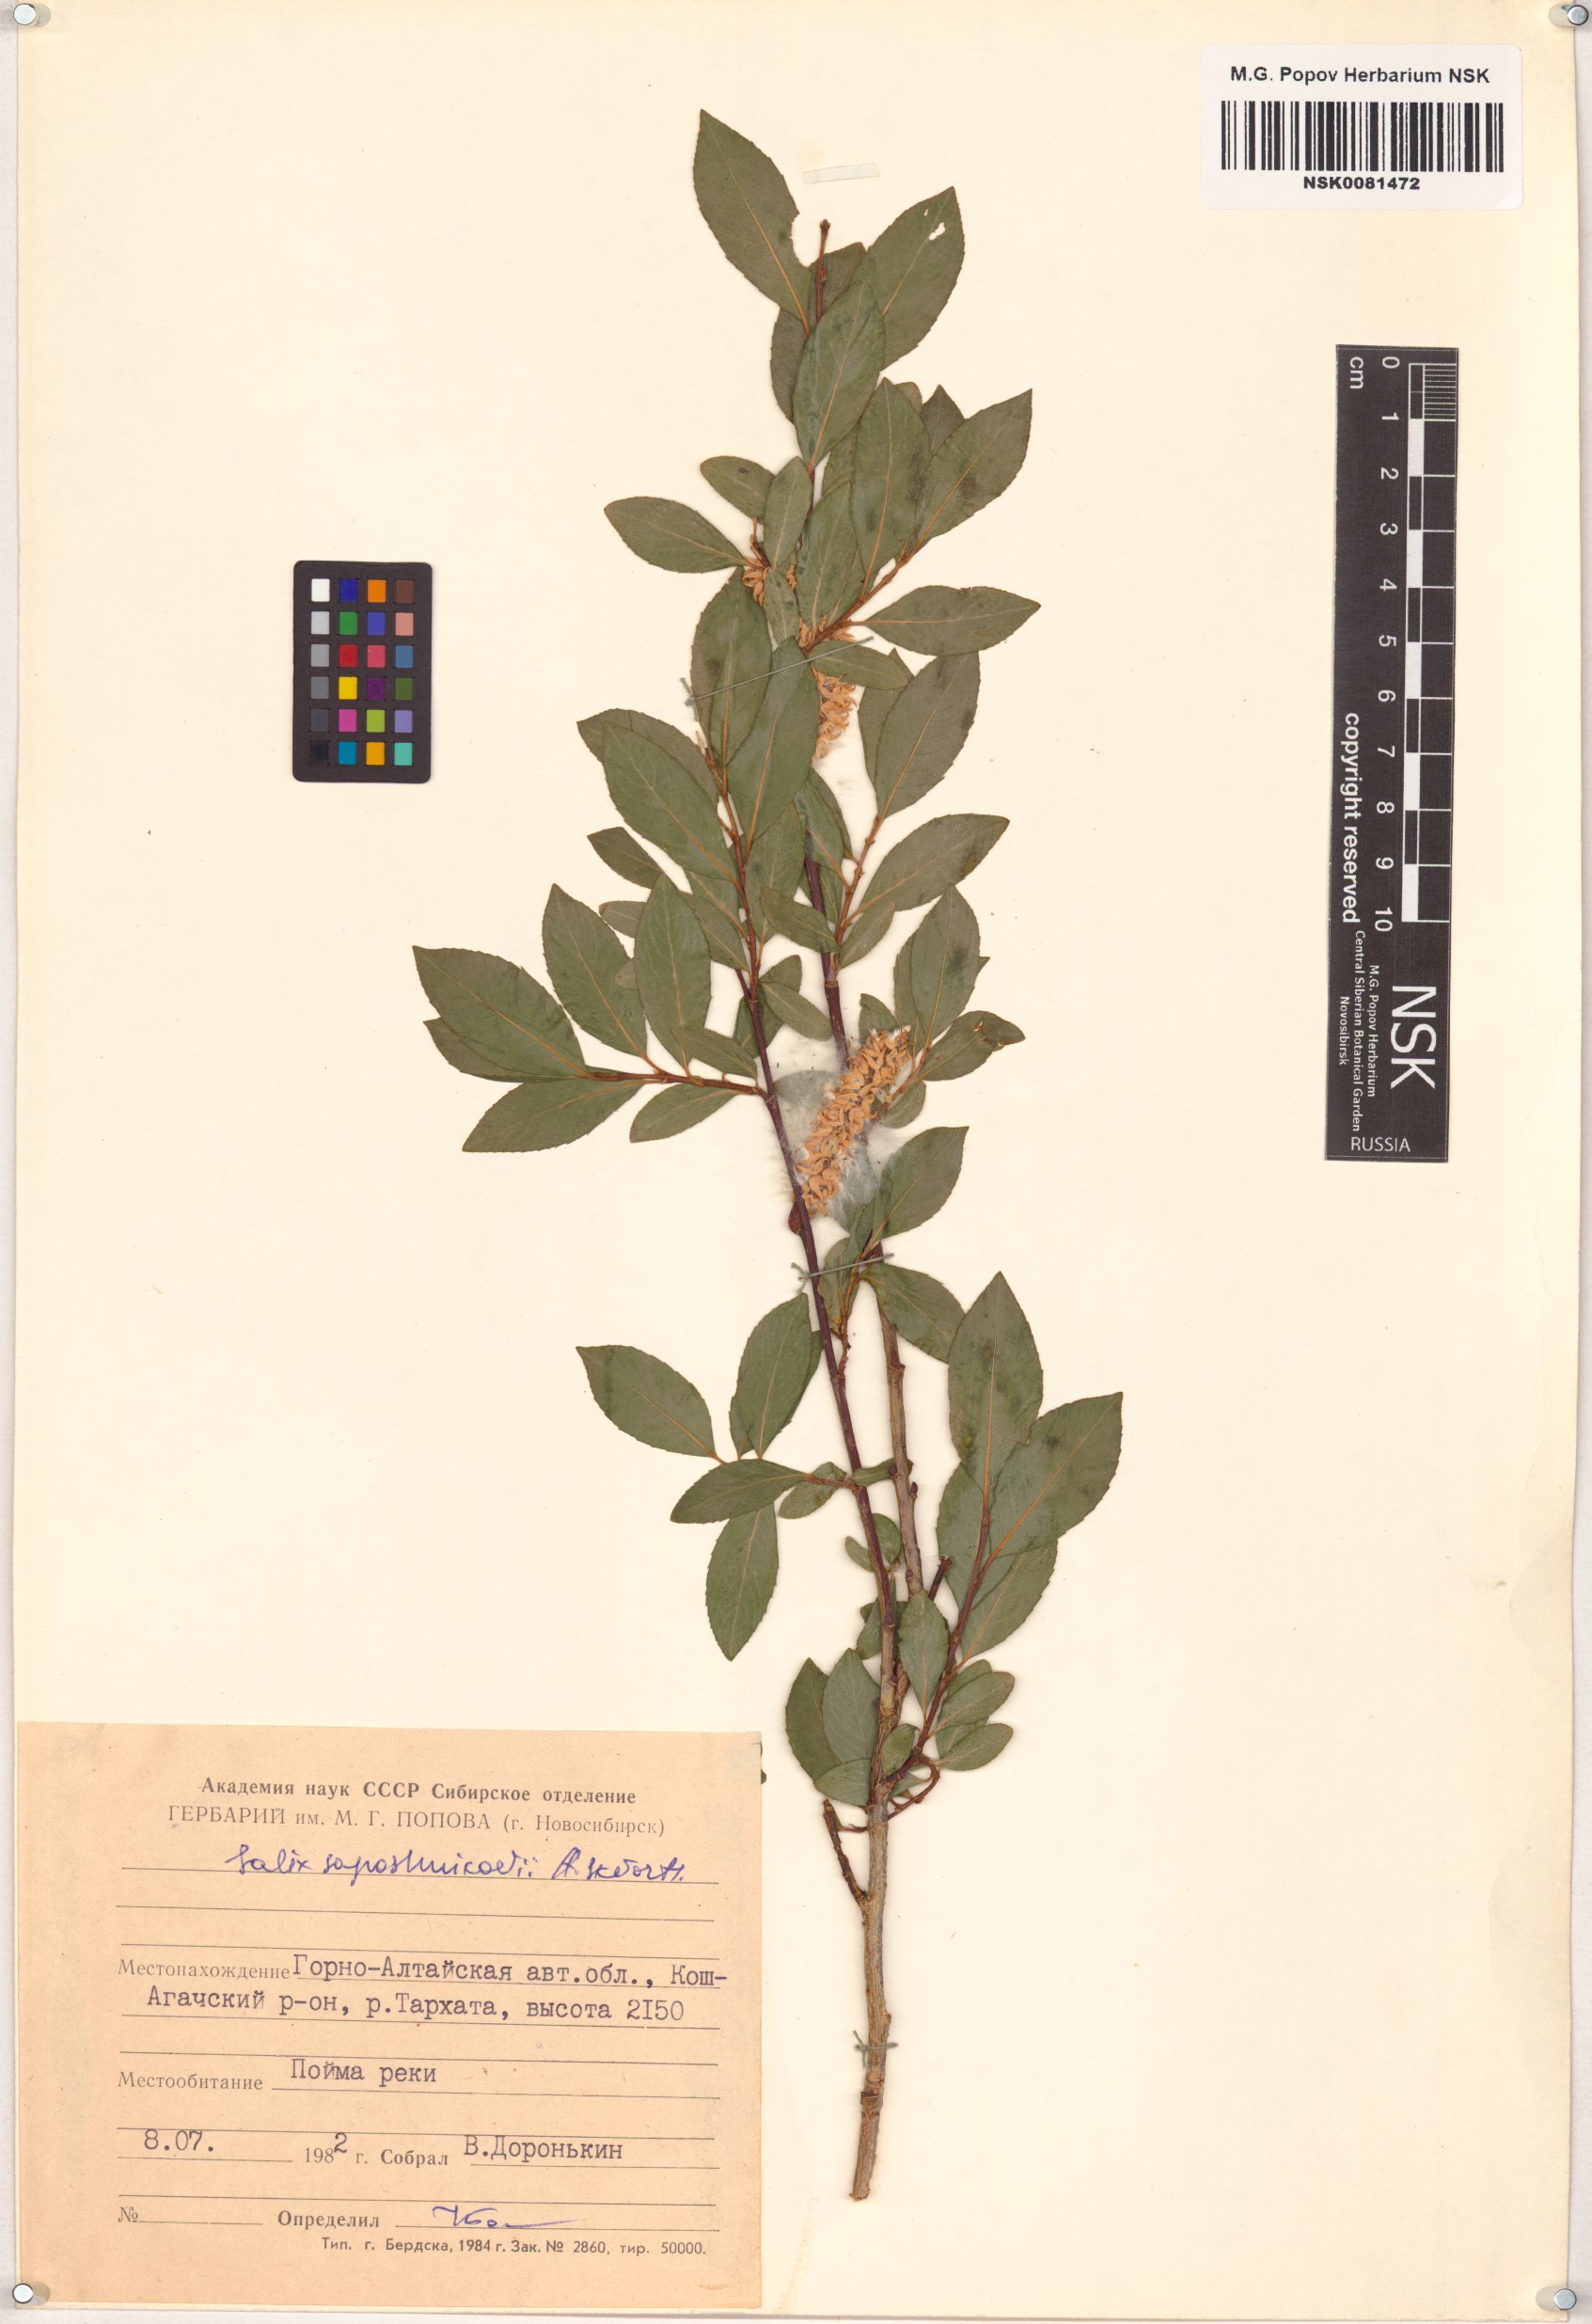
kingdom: Plantae
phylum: Tracheophyta
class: Magnoliopsida
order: Malpighiales
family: Salicaceae
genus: Salix
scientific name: Salix saposhnikovii
